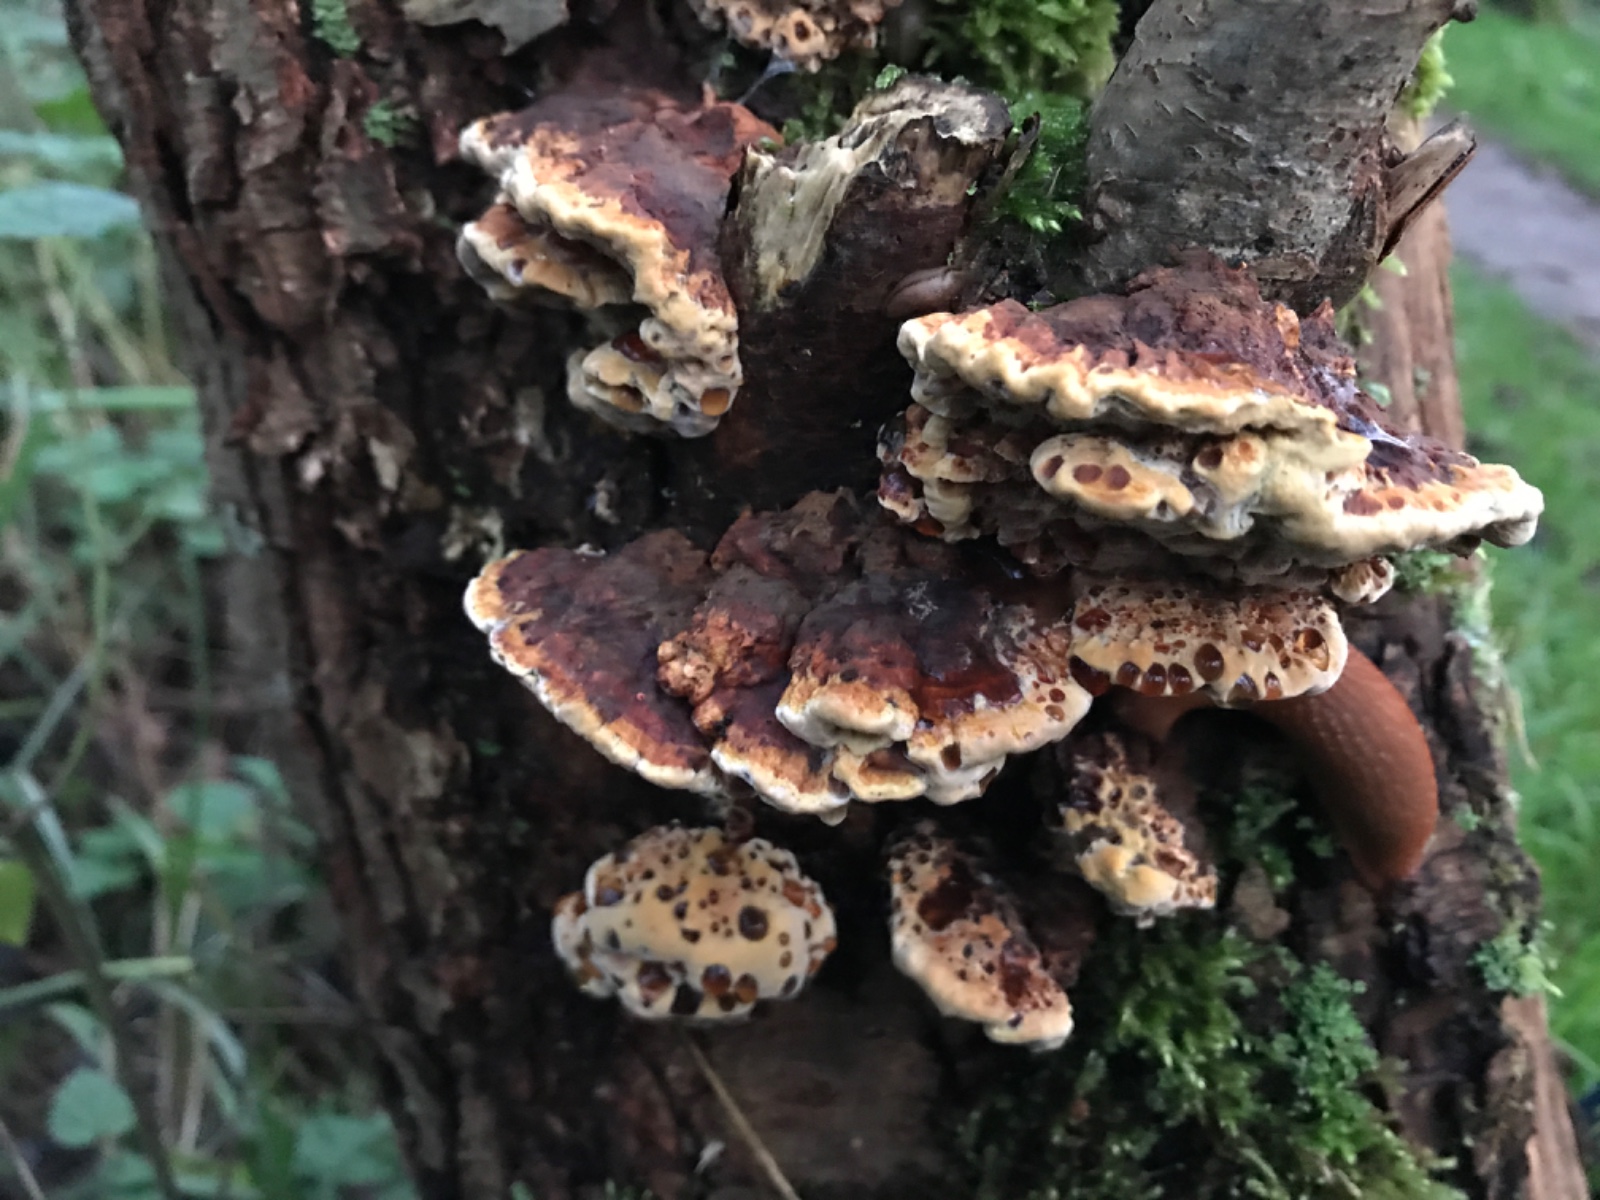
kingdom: Fungi
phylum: Basidiomycota
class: Agaricomycetes
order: Hymenochaetales
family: Hymenochaetaceae
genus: Xanthoporia
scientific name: Xanthoporia radiata
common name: elle-spejlporesvamp
